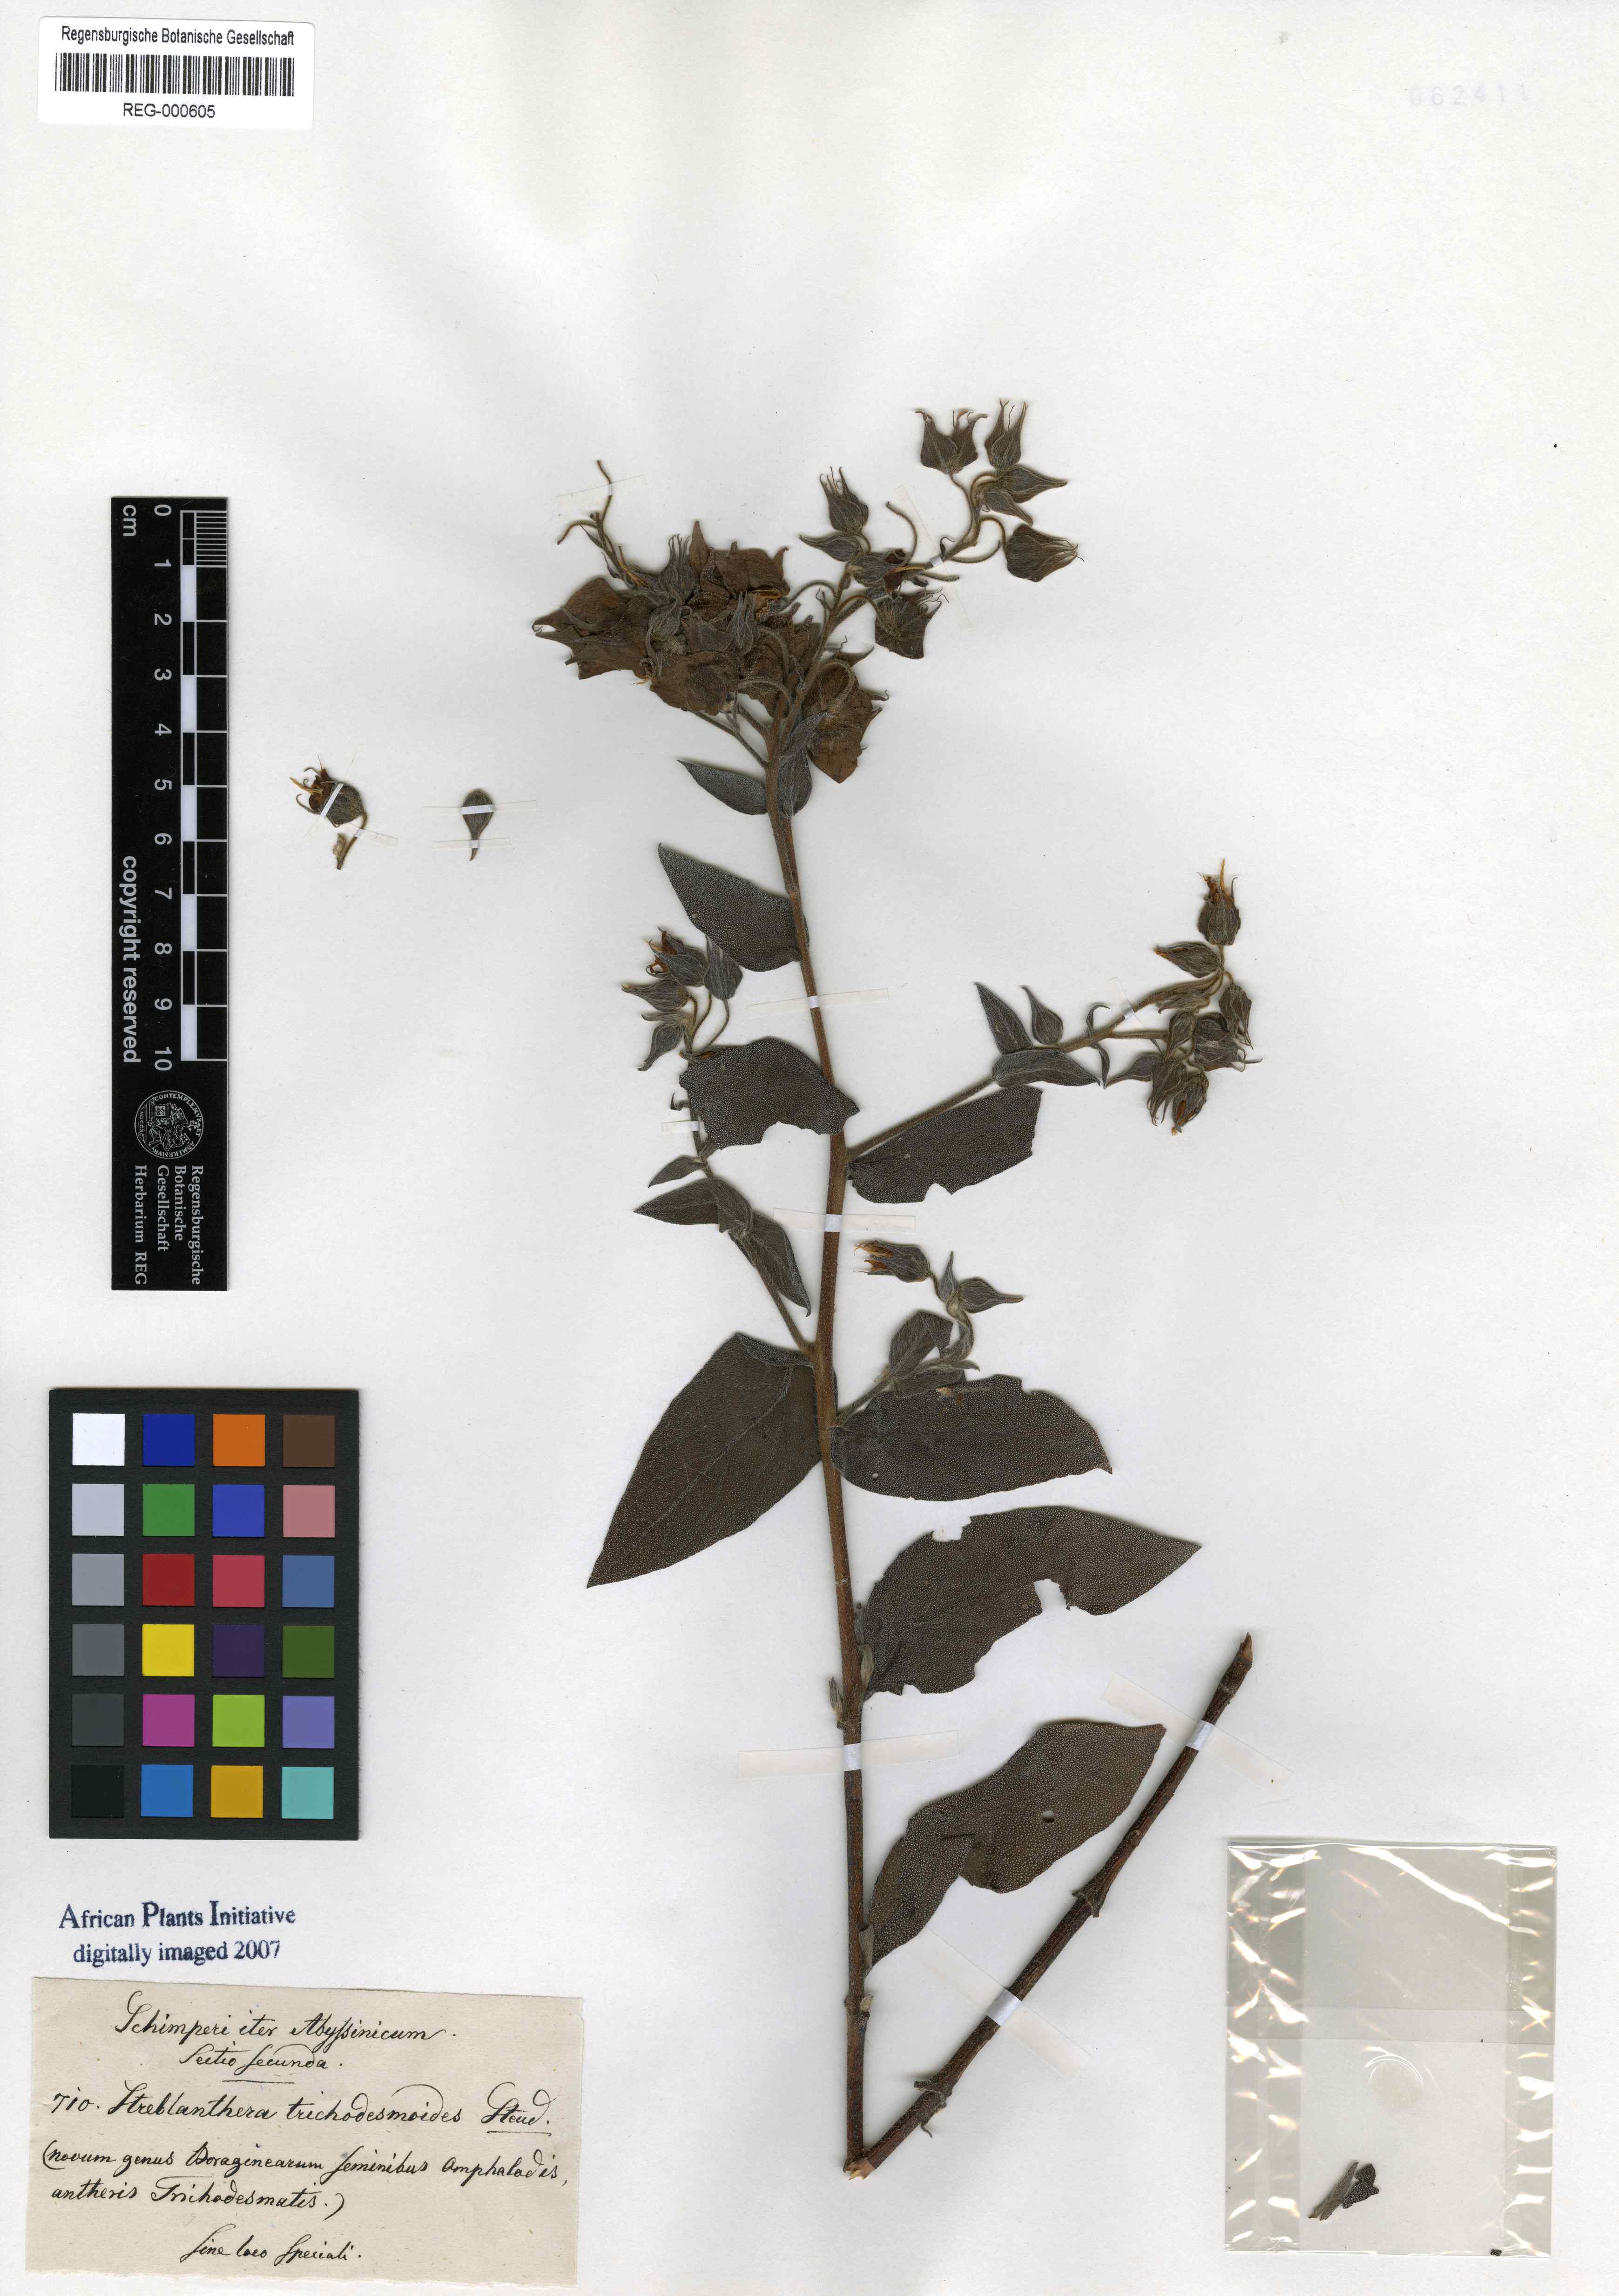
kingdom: Plantae
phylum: Tracheophyta
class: Magnoliopsida
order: Boraginales
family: Boraginaceae
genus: Trichodesma
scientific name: Trichodesma trichodesmoides
